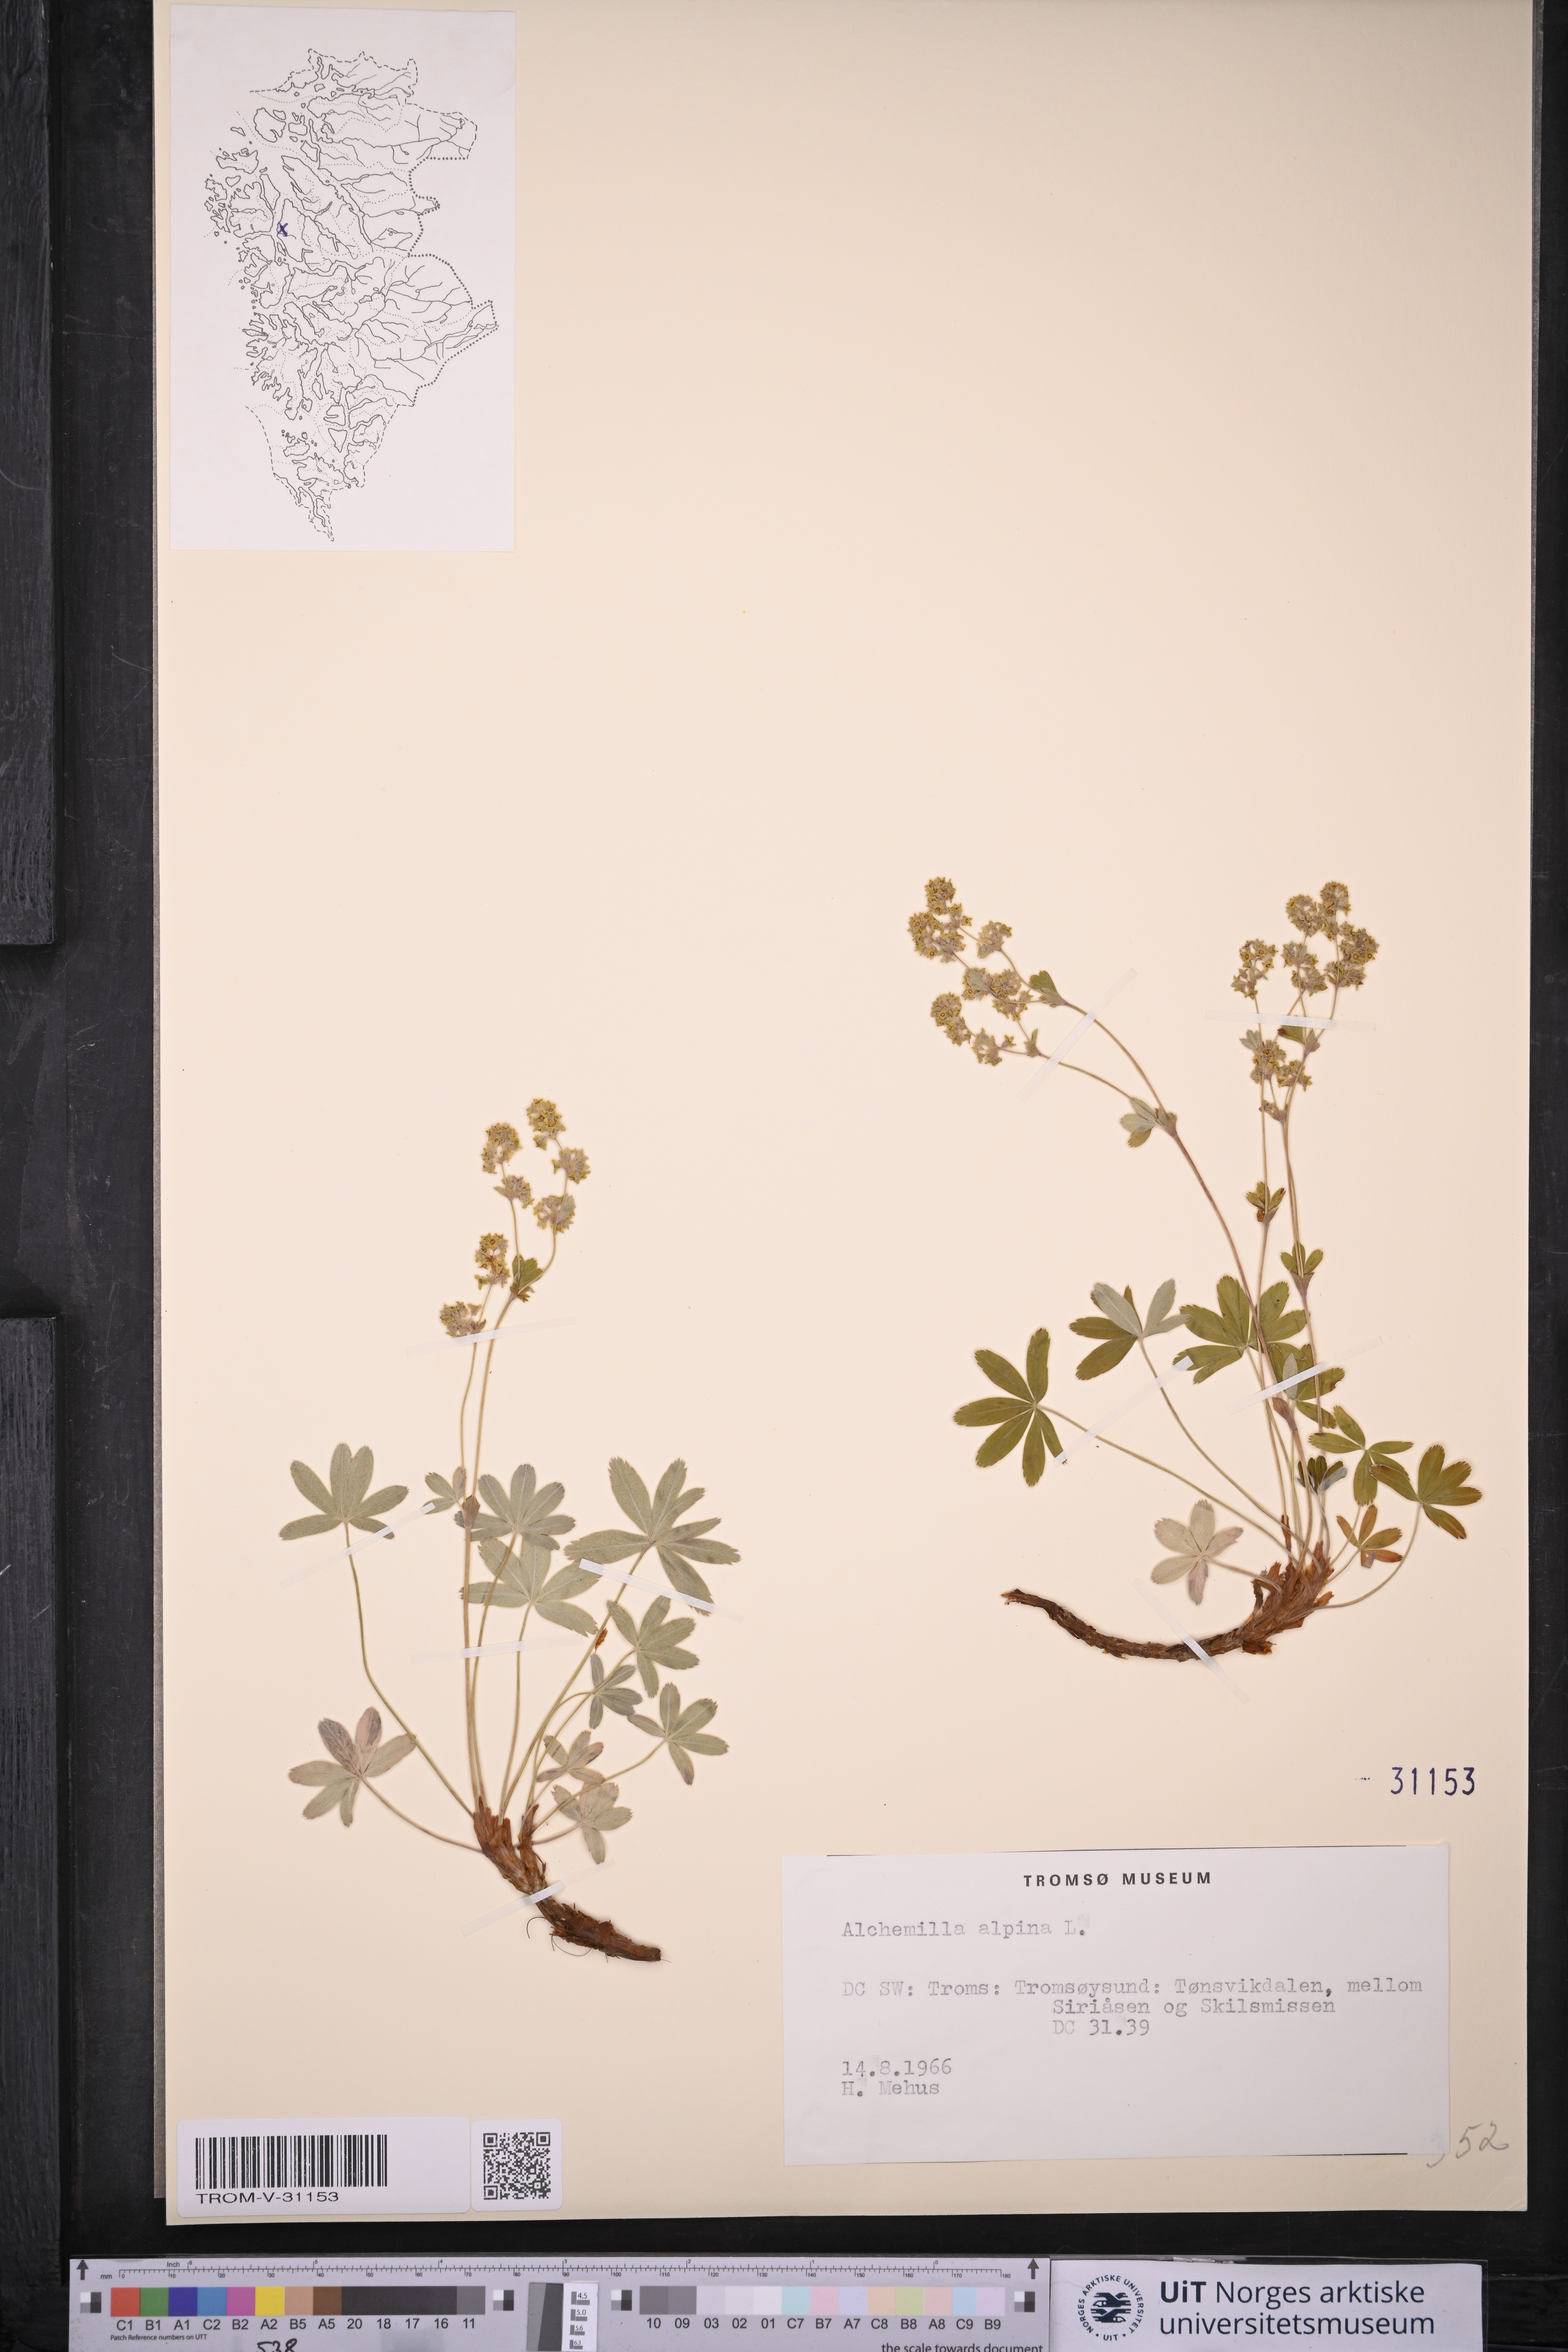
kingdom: Plantae
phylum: Tracheophyta
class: Magnoliopsida
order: Rosales
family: Rosaceae
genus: Alchemilla
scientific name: Alchemilla alpina
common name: Alpine lady's-mantle
